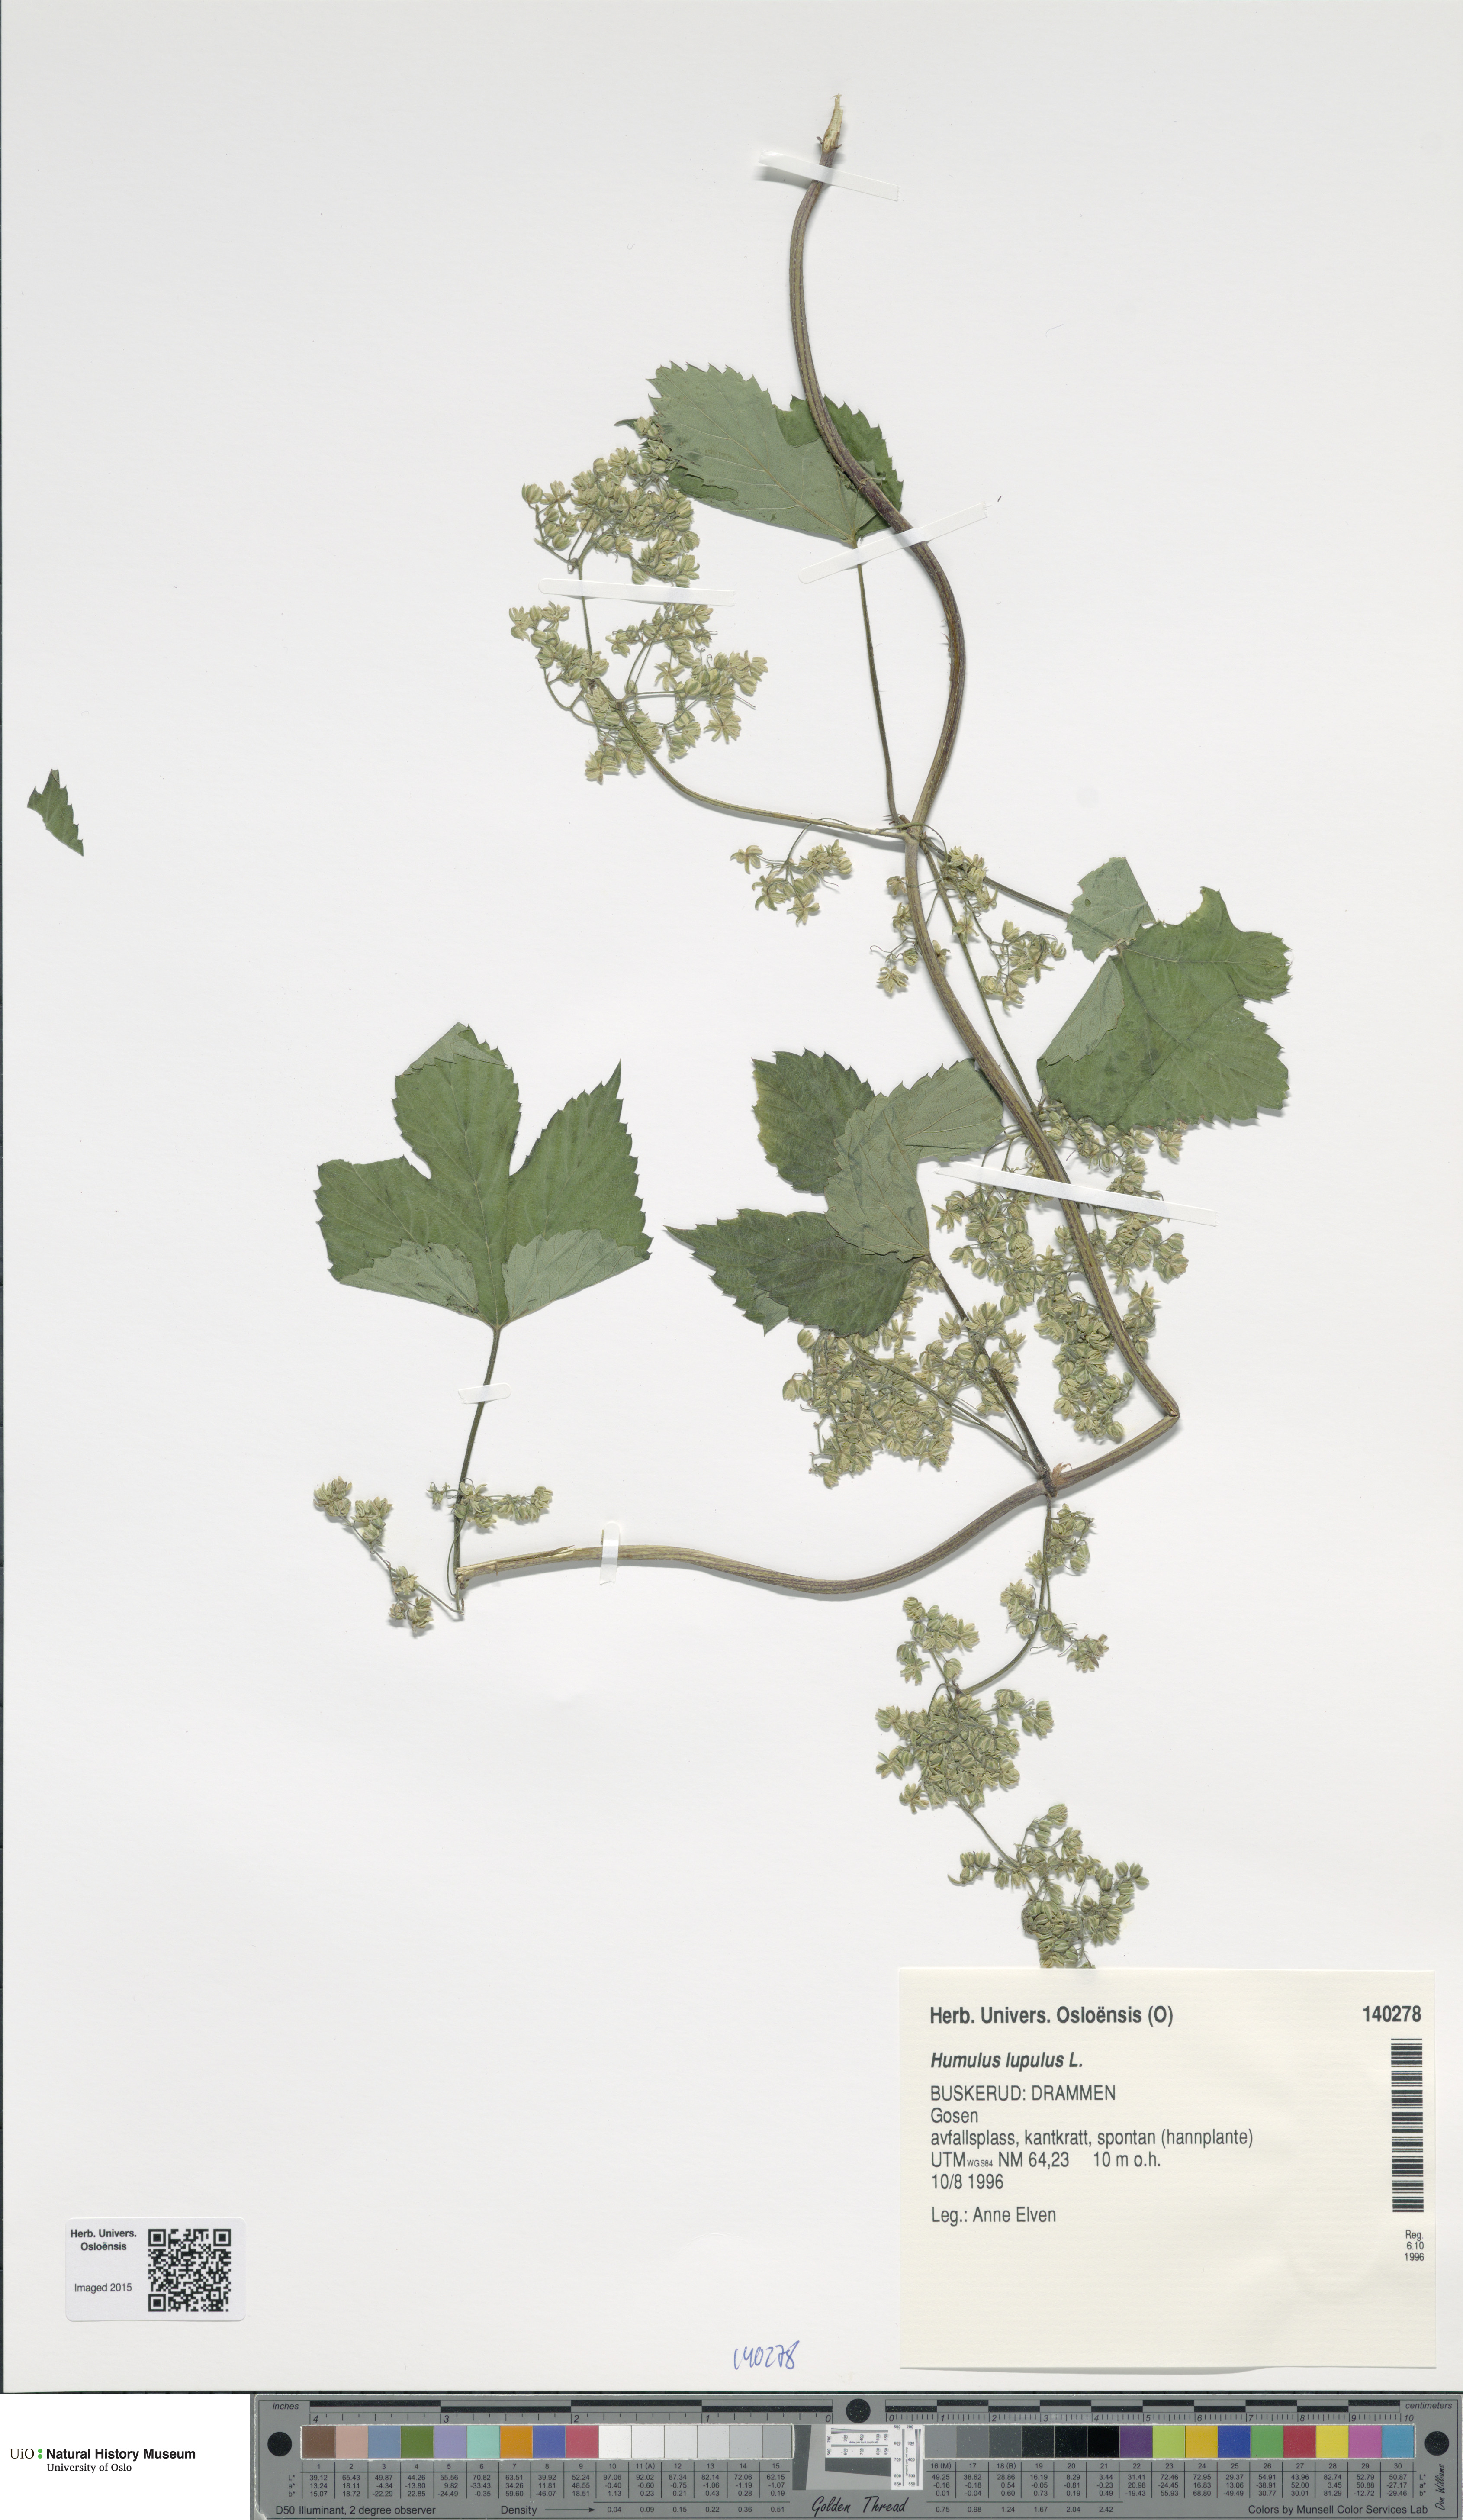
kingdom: Plantae
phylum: Tracheophyta
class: Magnoliopsida
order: Rosales
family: Cannabaceae
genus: Humulus
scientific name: Humulus lupulus
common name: Hop
